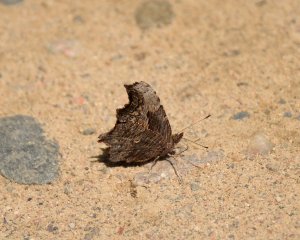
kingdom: Animalia
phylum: Arthropoda
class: Insecta
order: Lepidoptera
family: Nymphalidae
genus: Polygonia
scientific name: Polygonia progne
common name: Gray Comma
